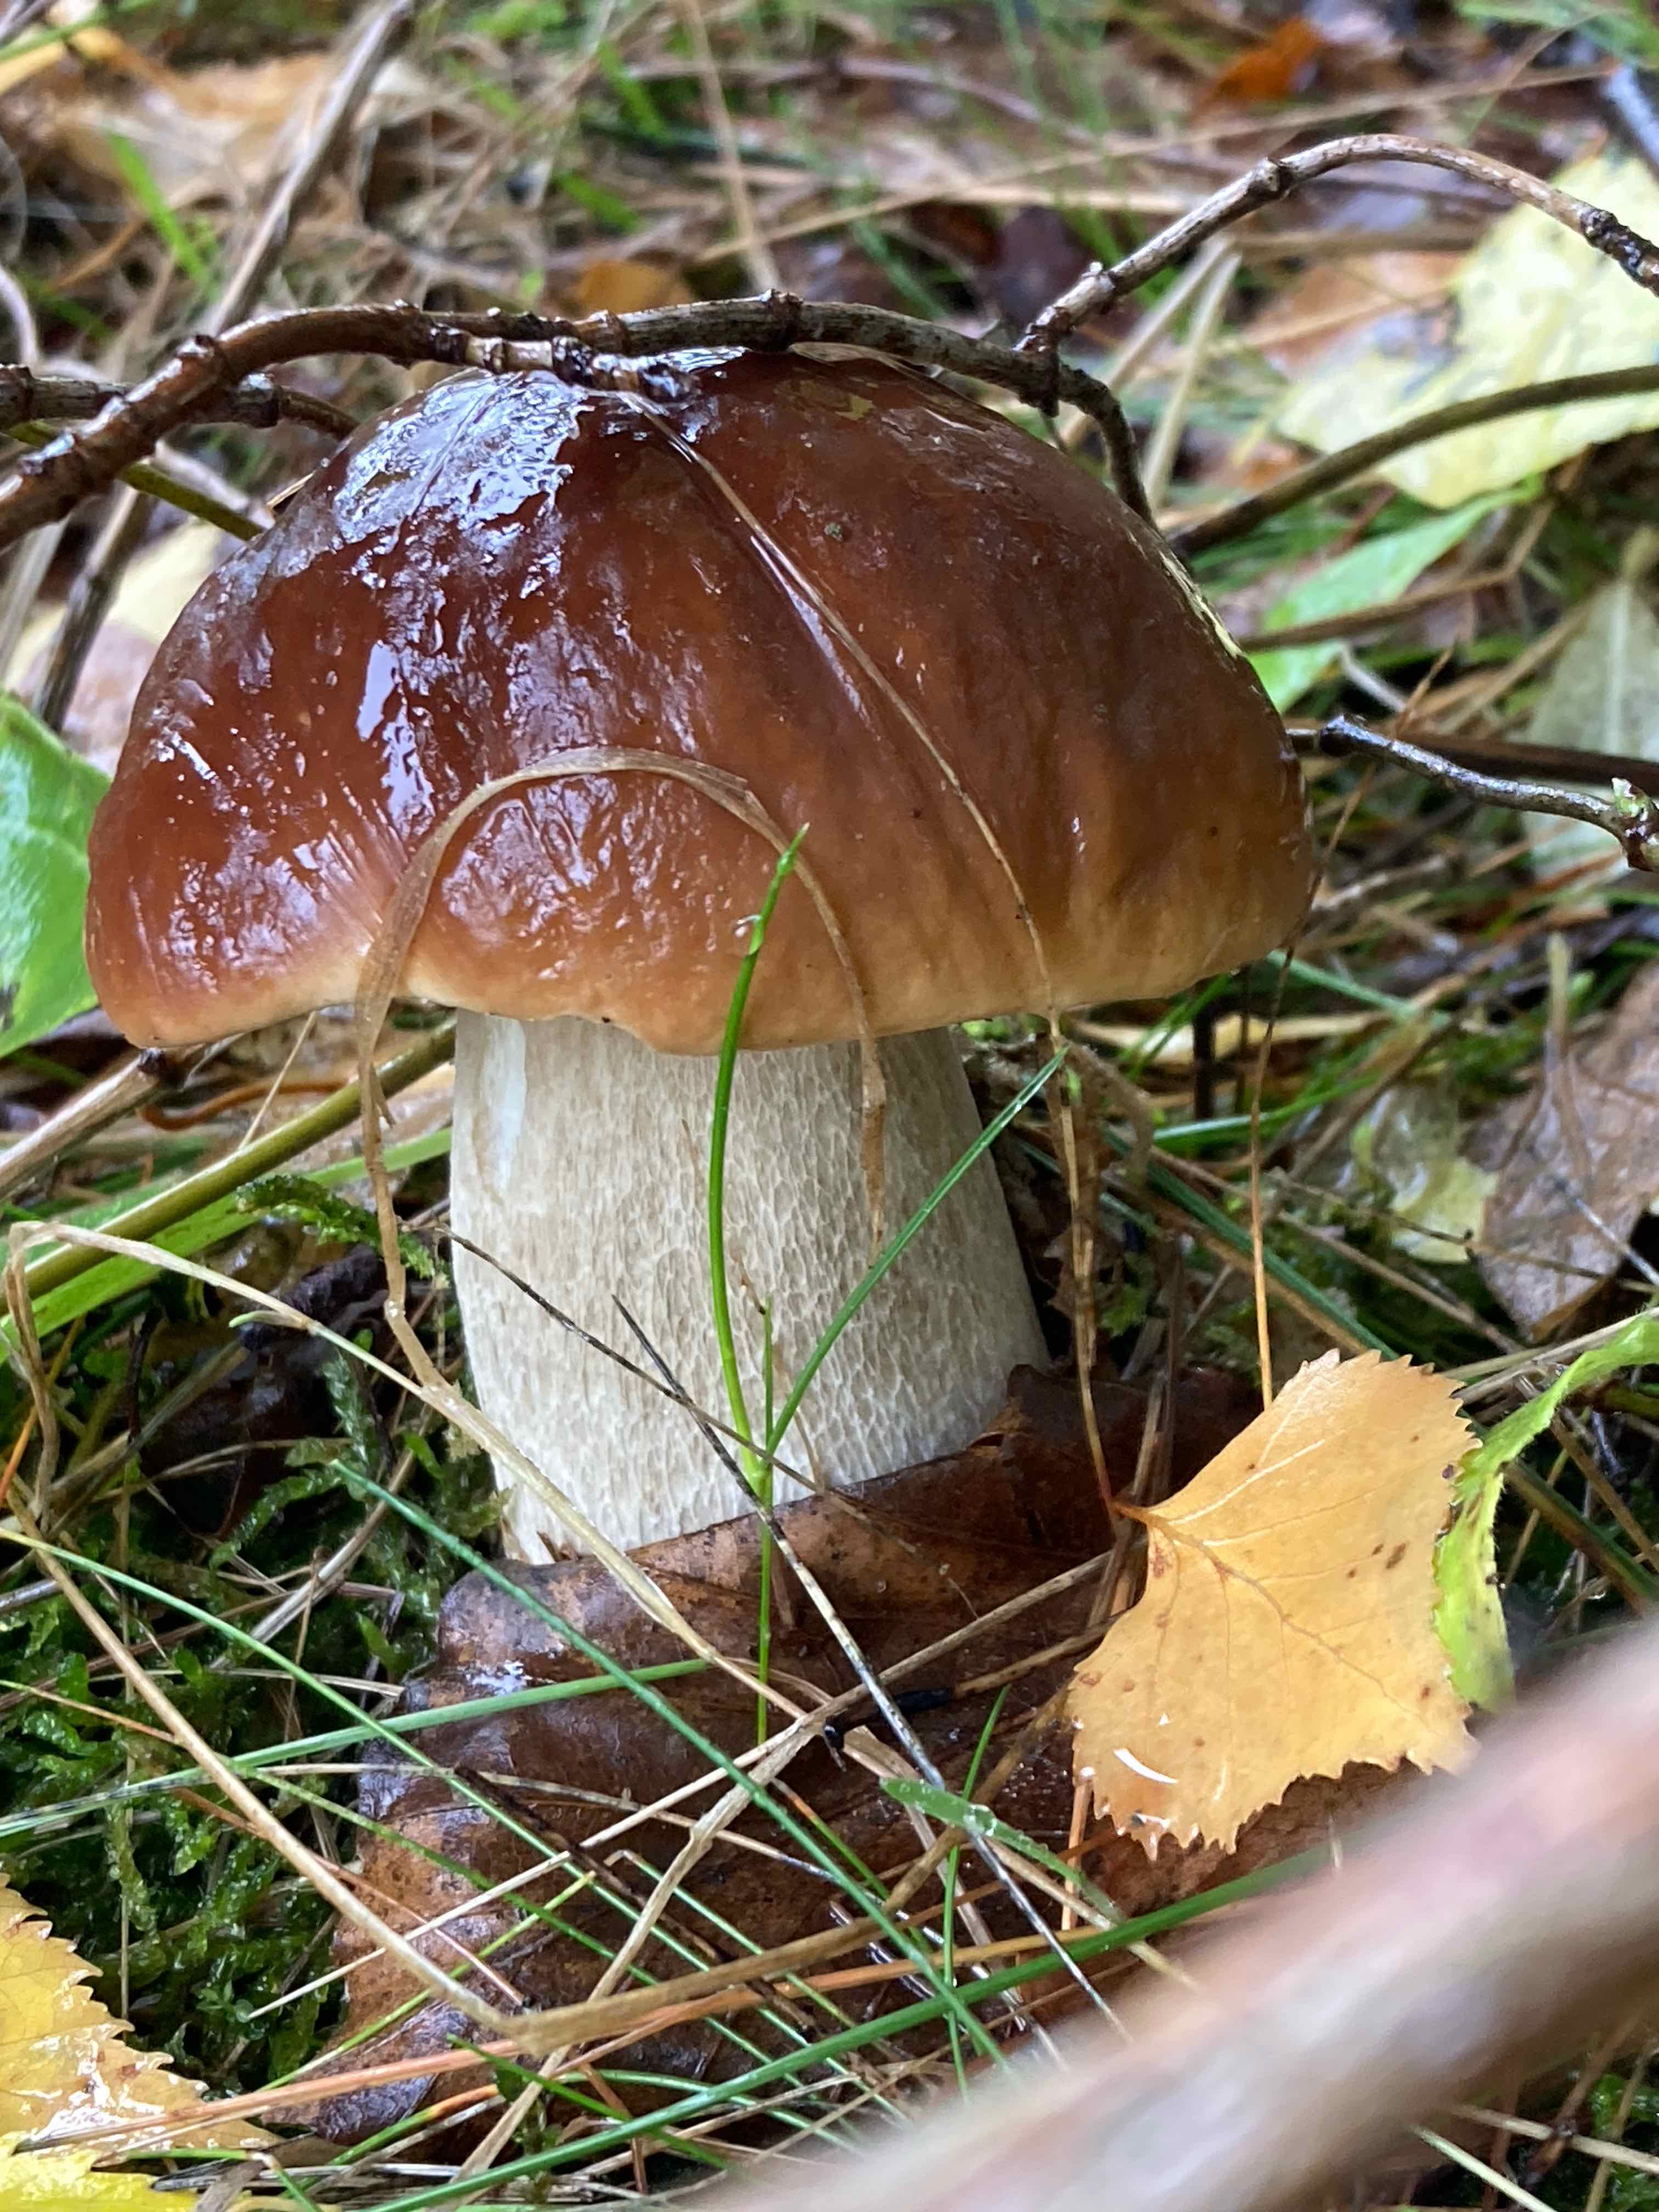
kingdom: Fungi
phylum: Basidiomycota
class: Agaricomycetes
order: Boletales
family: Boletaceae
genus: Boletus
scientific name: Boletus edulis
